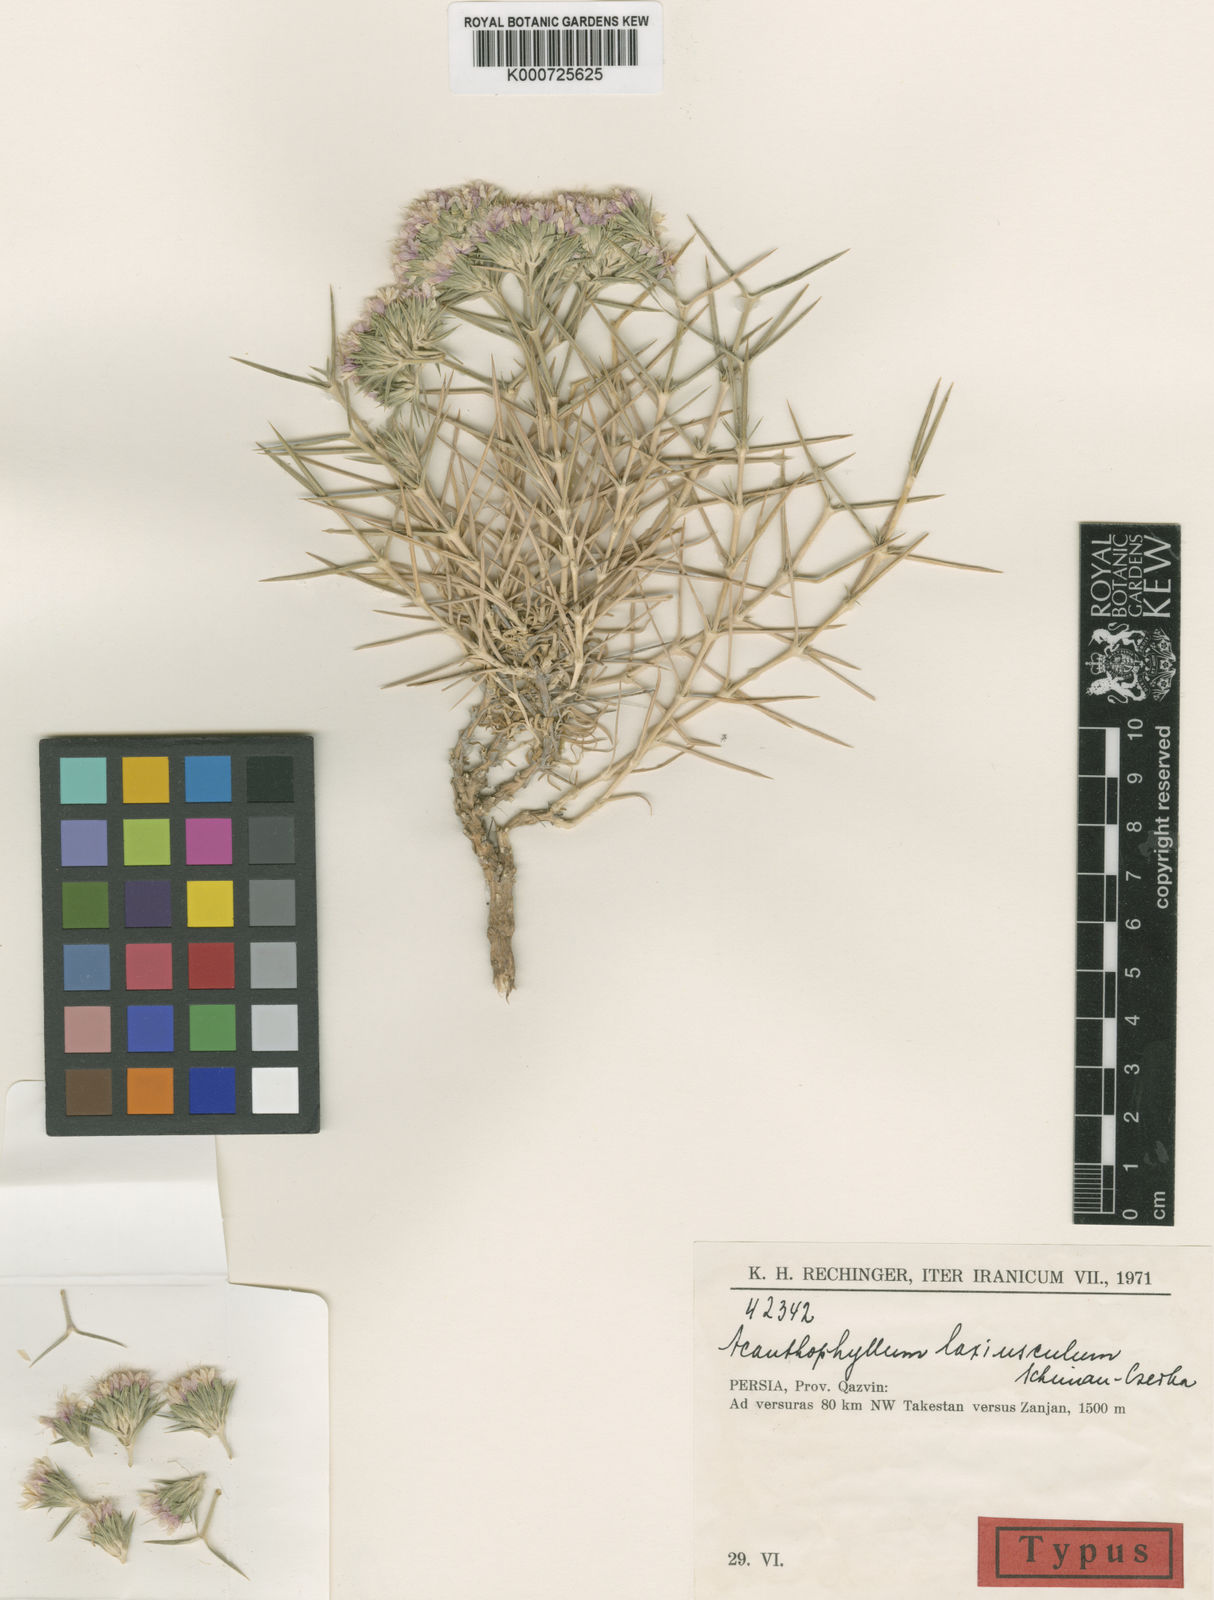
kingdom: Plantae
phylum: Tracheophyta
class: Magnoliopsida
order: Caryophyllales
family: Caryophyllaceae
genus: Acanthophyllum
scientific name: Acanthophyllum laxiusculum
